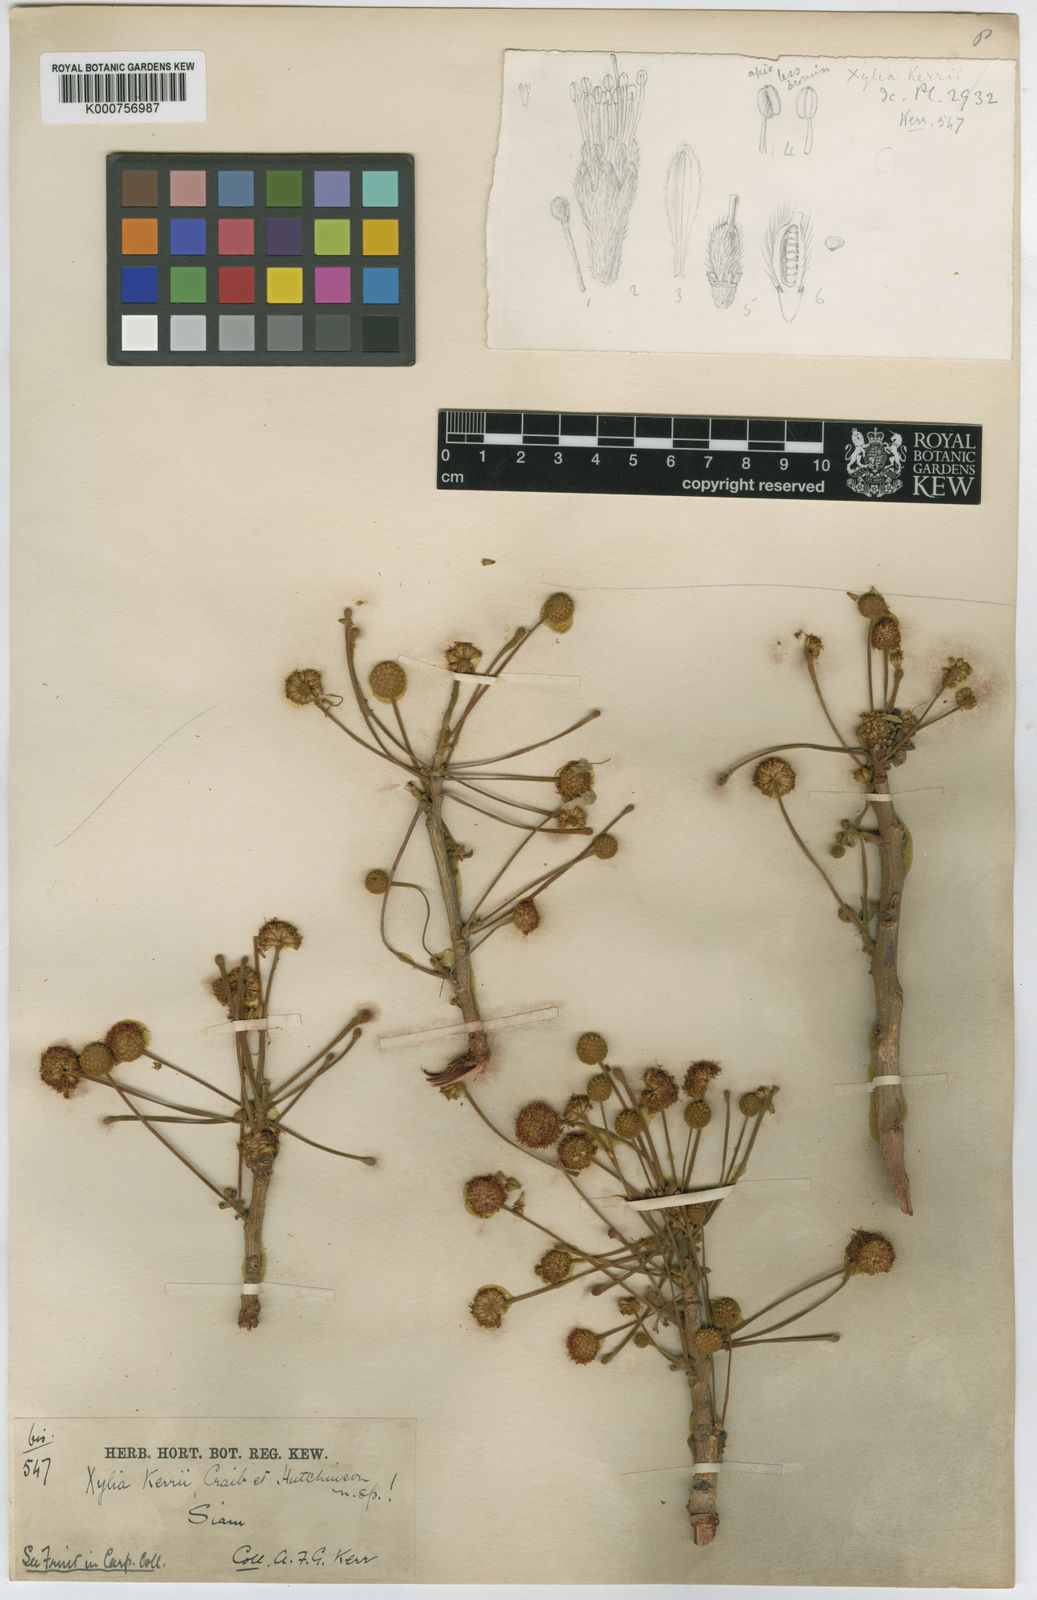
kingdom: Plantae
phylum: Tracheophyta
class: Magnoliopsida
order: Fabales
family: Fabaceae
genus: Xylia
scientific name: Xylia xylocarpa
